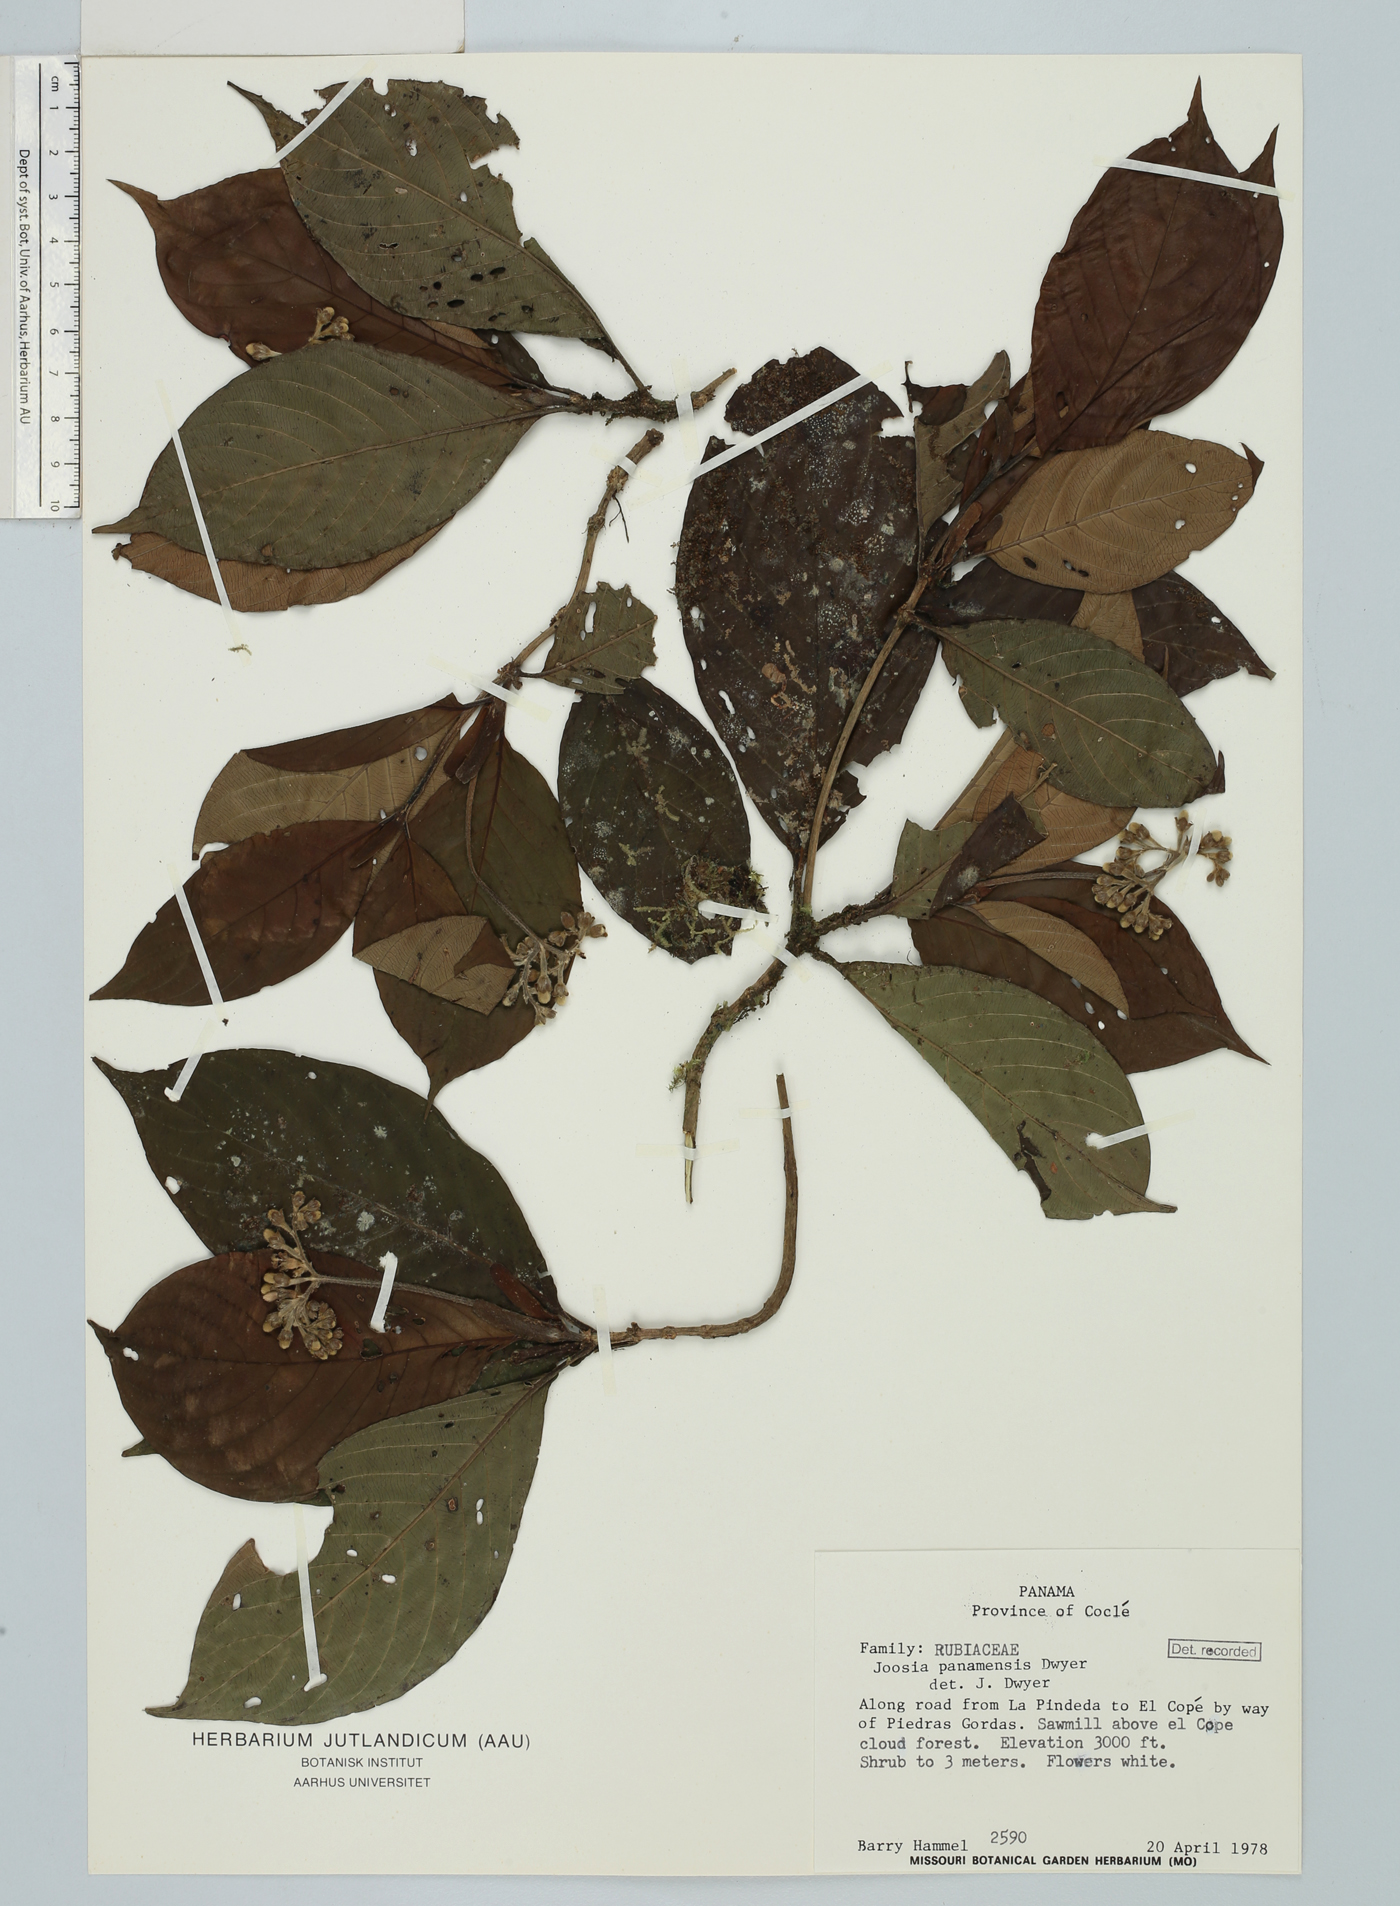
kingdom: Plantae
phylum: Tracheophyta
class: Magnoliopsida
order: Gentianales
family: Rubiaceae
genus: Joosia
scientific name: Joosia panamensis
